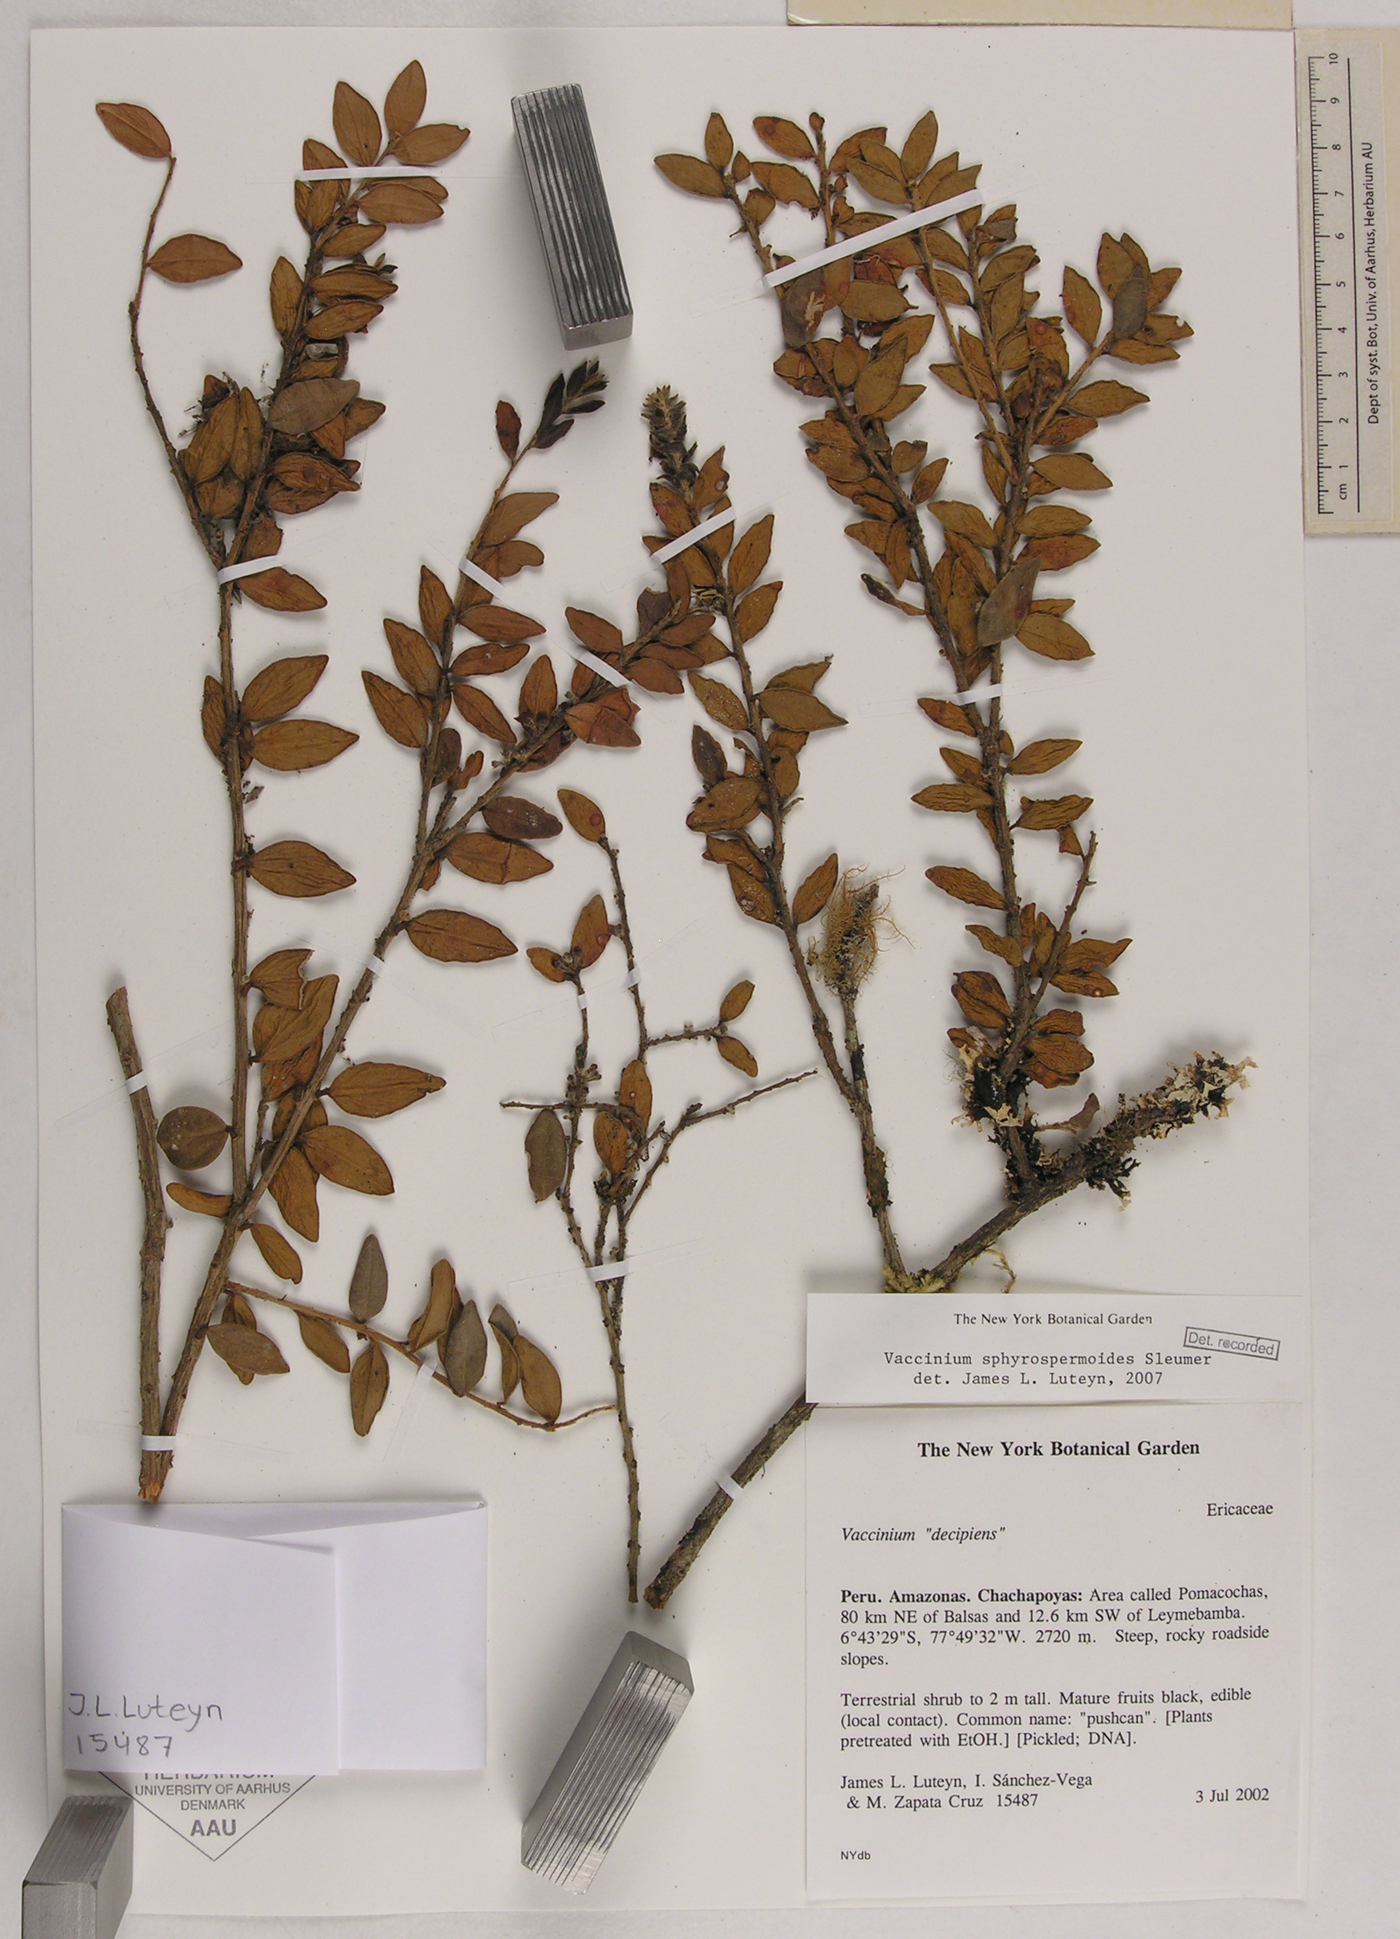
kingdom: Plantae
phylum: Tracheophyta
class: Magnoliopsida
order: Ericales
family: Ericaceae
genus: Sphyrospermum
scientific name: Sphyrospermum myrtifolium
